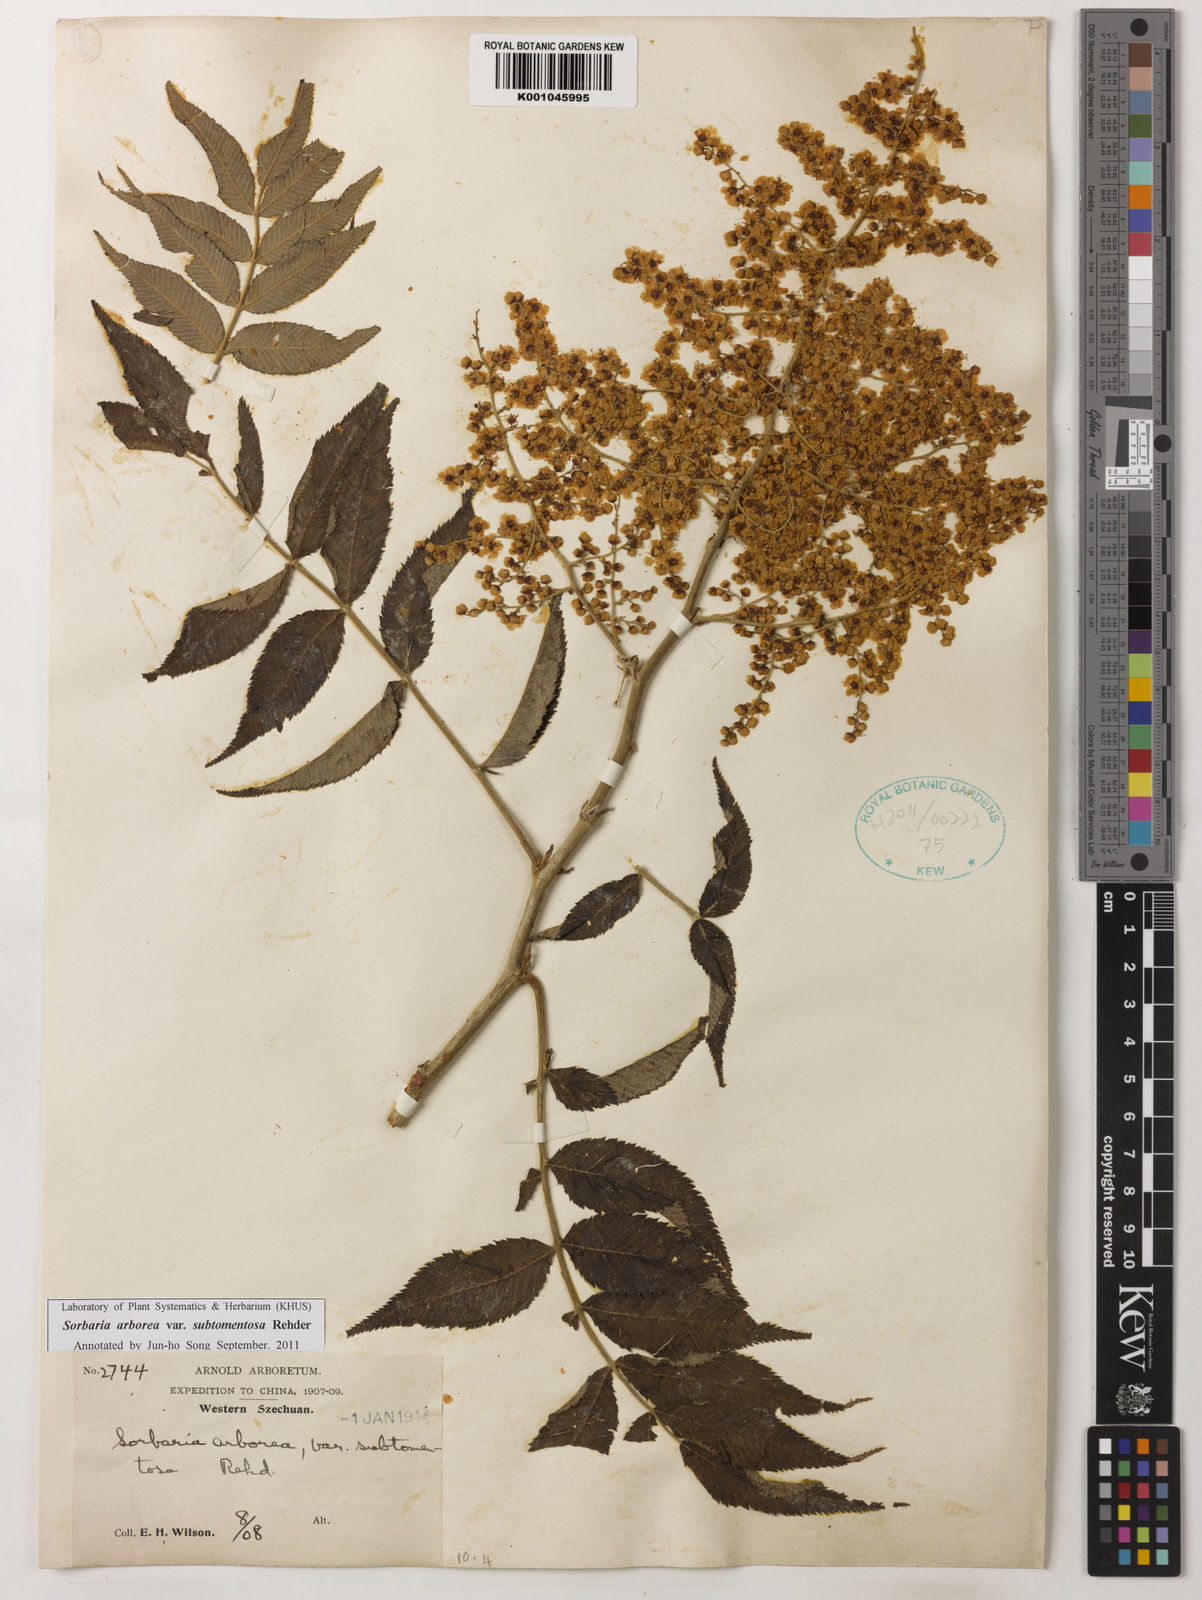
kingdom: Plantae
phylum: Tracheophyta
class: Magnoliopsida
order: Rosales
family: Rosaceae
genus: Sorbaria
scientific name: Sorbaria kirilowii
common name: Chinese sorbaria
